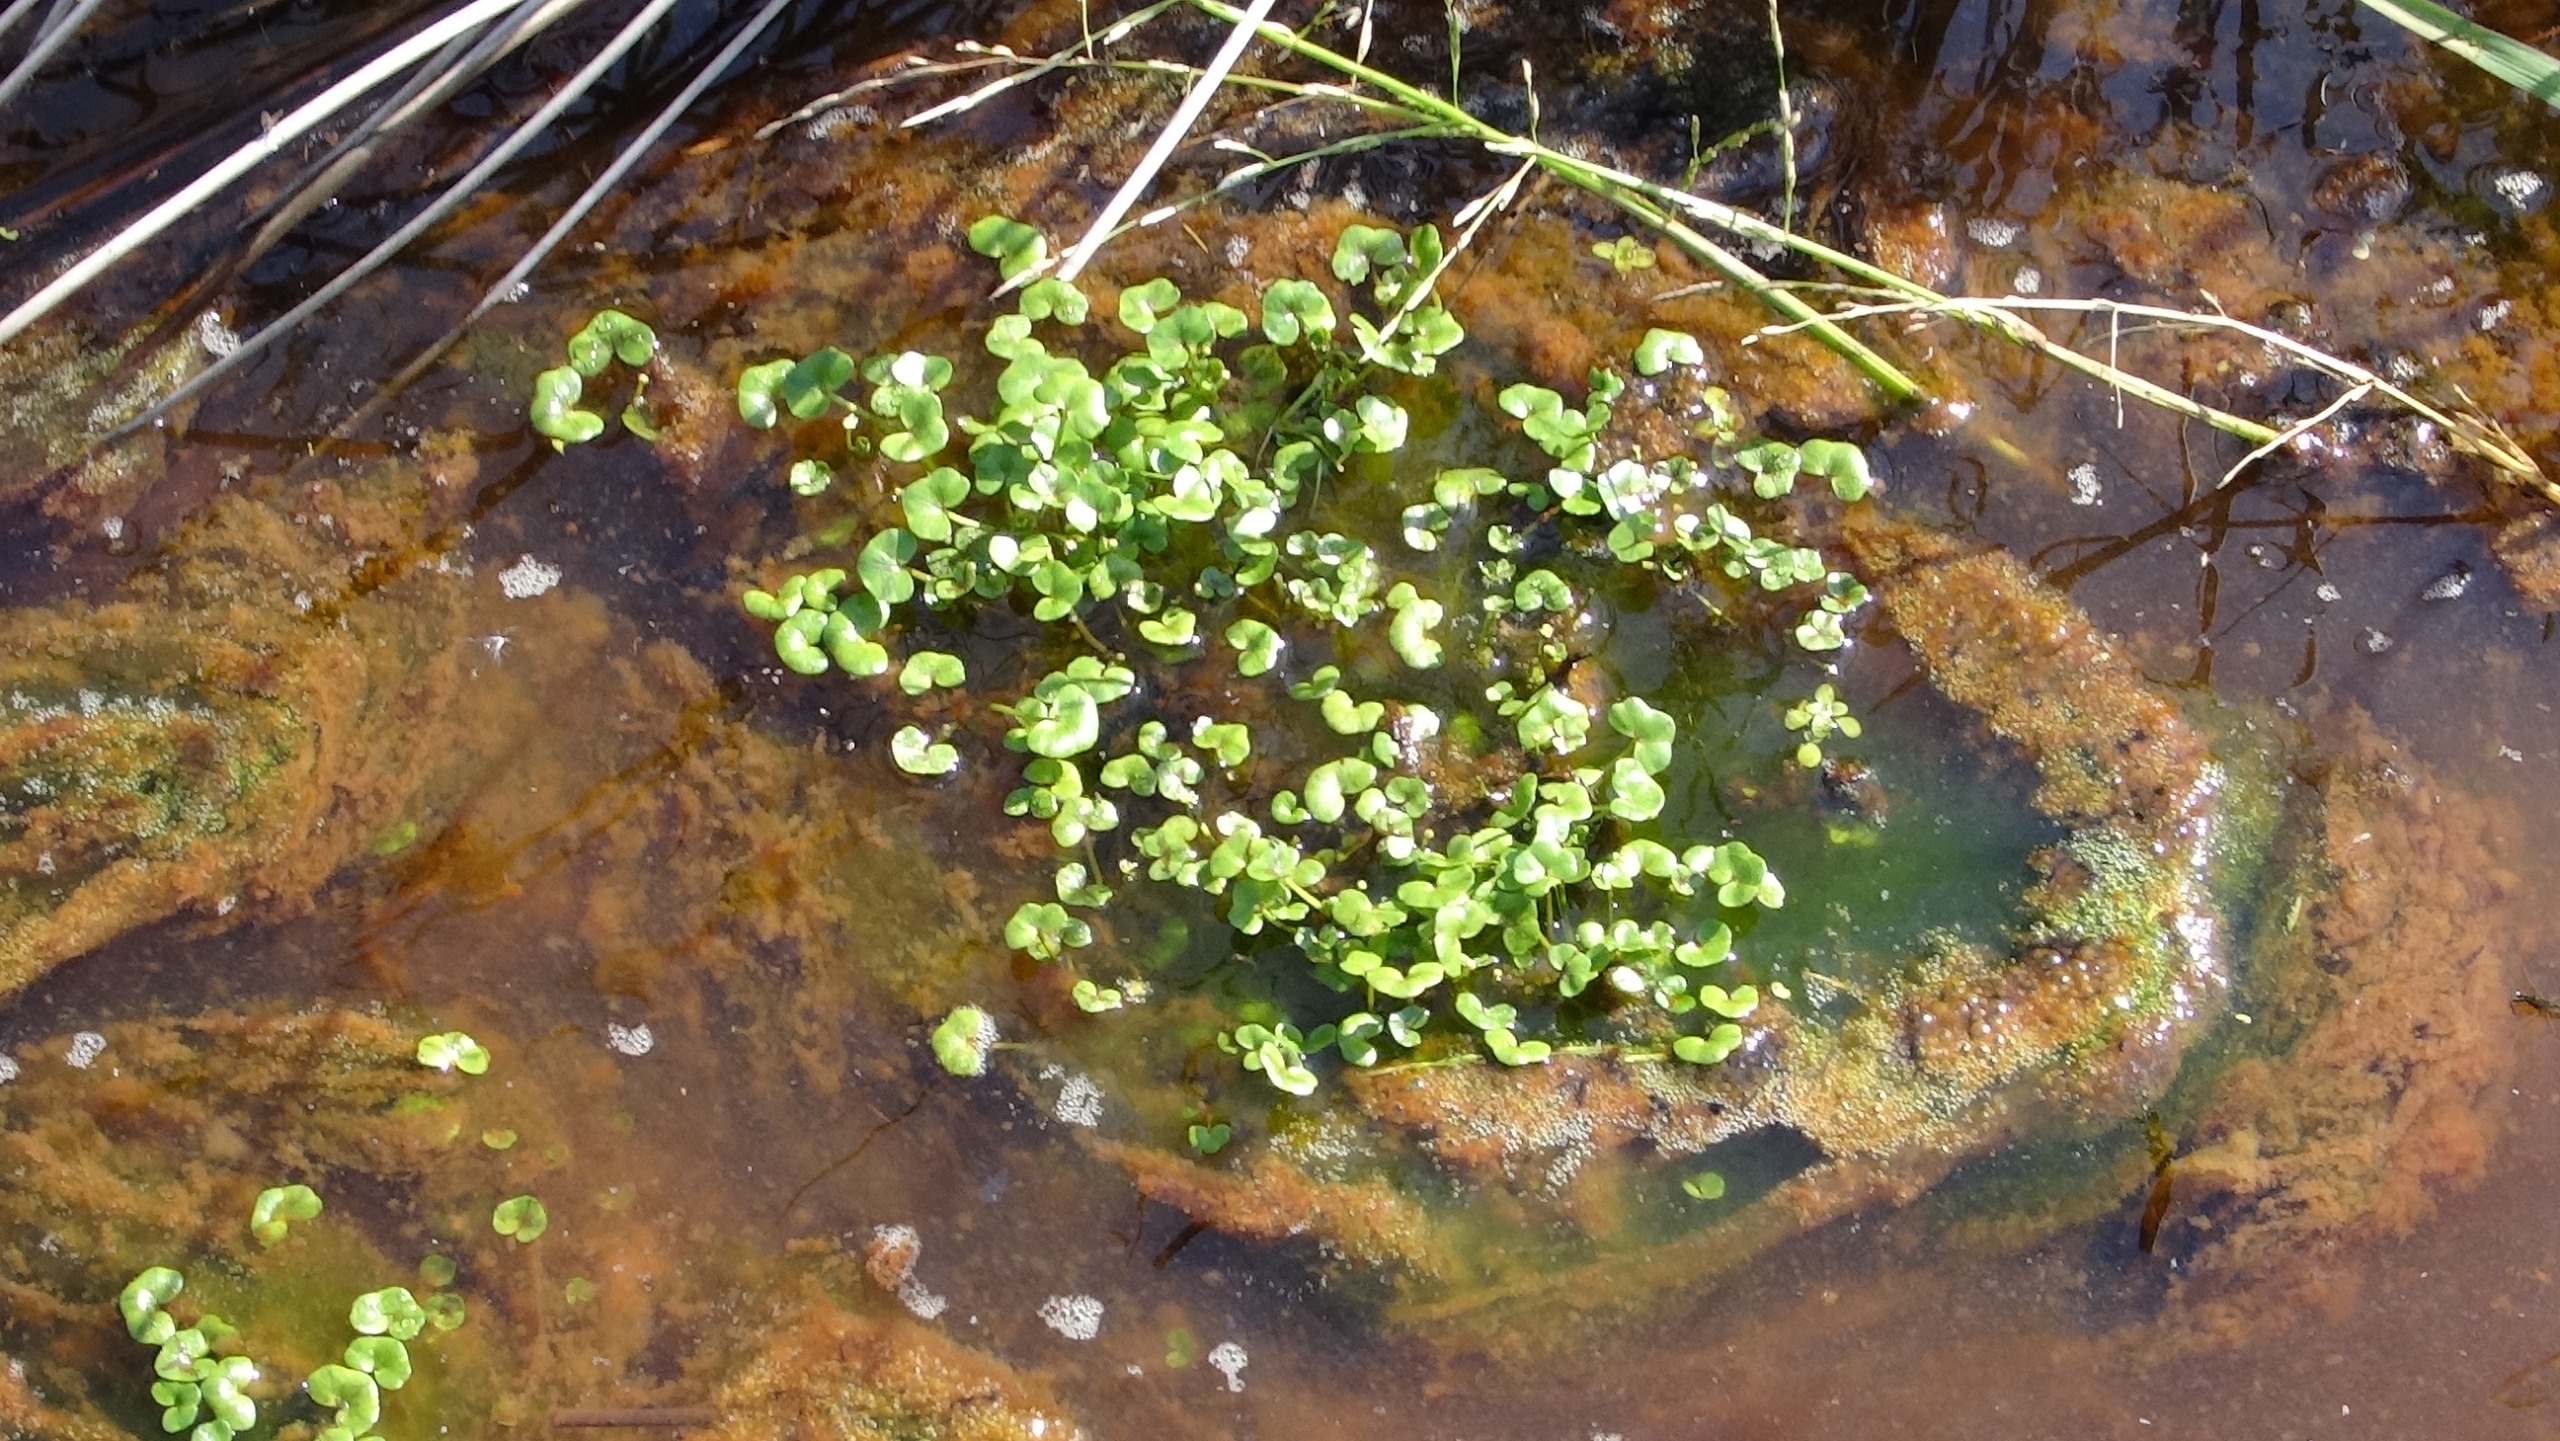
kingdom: Plantae
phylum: Tracheophyta
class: Magnoliopsida
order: Ranunculales
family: Ranunculaceae
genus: Ranunculus
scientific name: Ranunculus hederaceus
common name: Vedbend-vandranunkel
